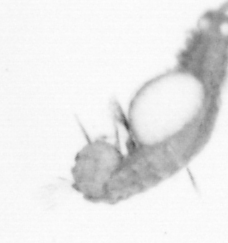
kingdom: Animalia
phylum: Annelida
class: Polychaeta
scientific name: Polychaeta
